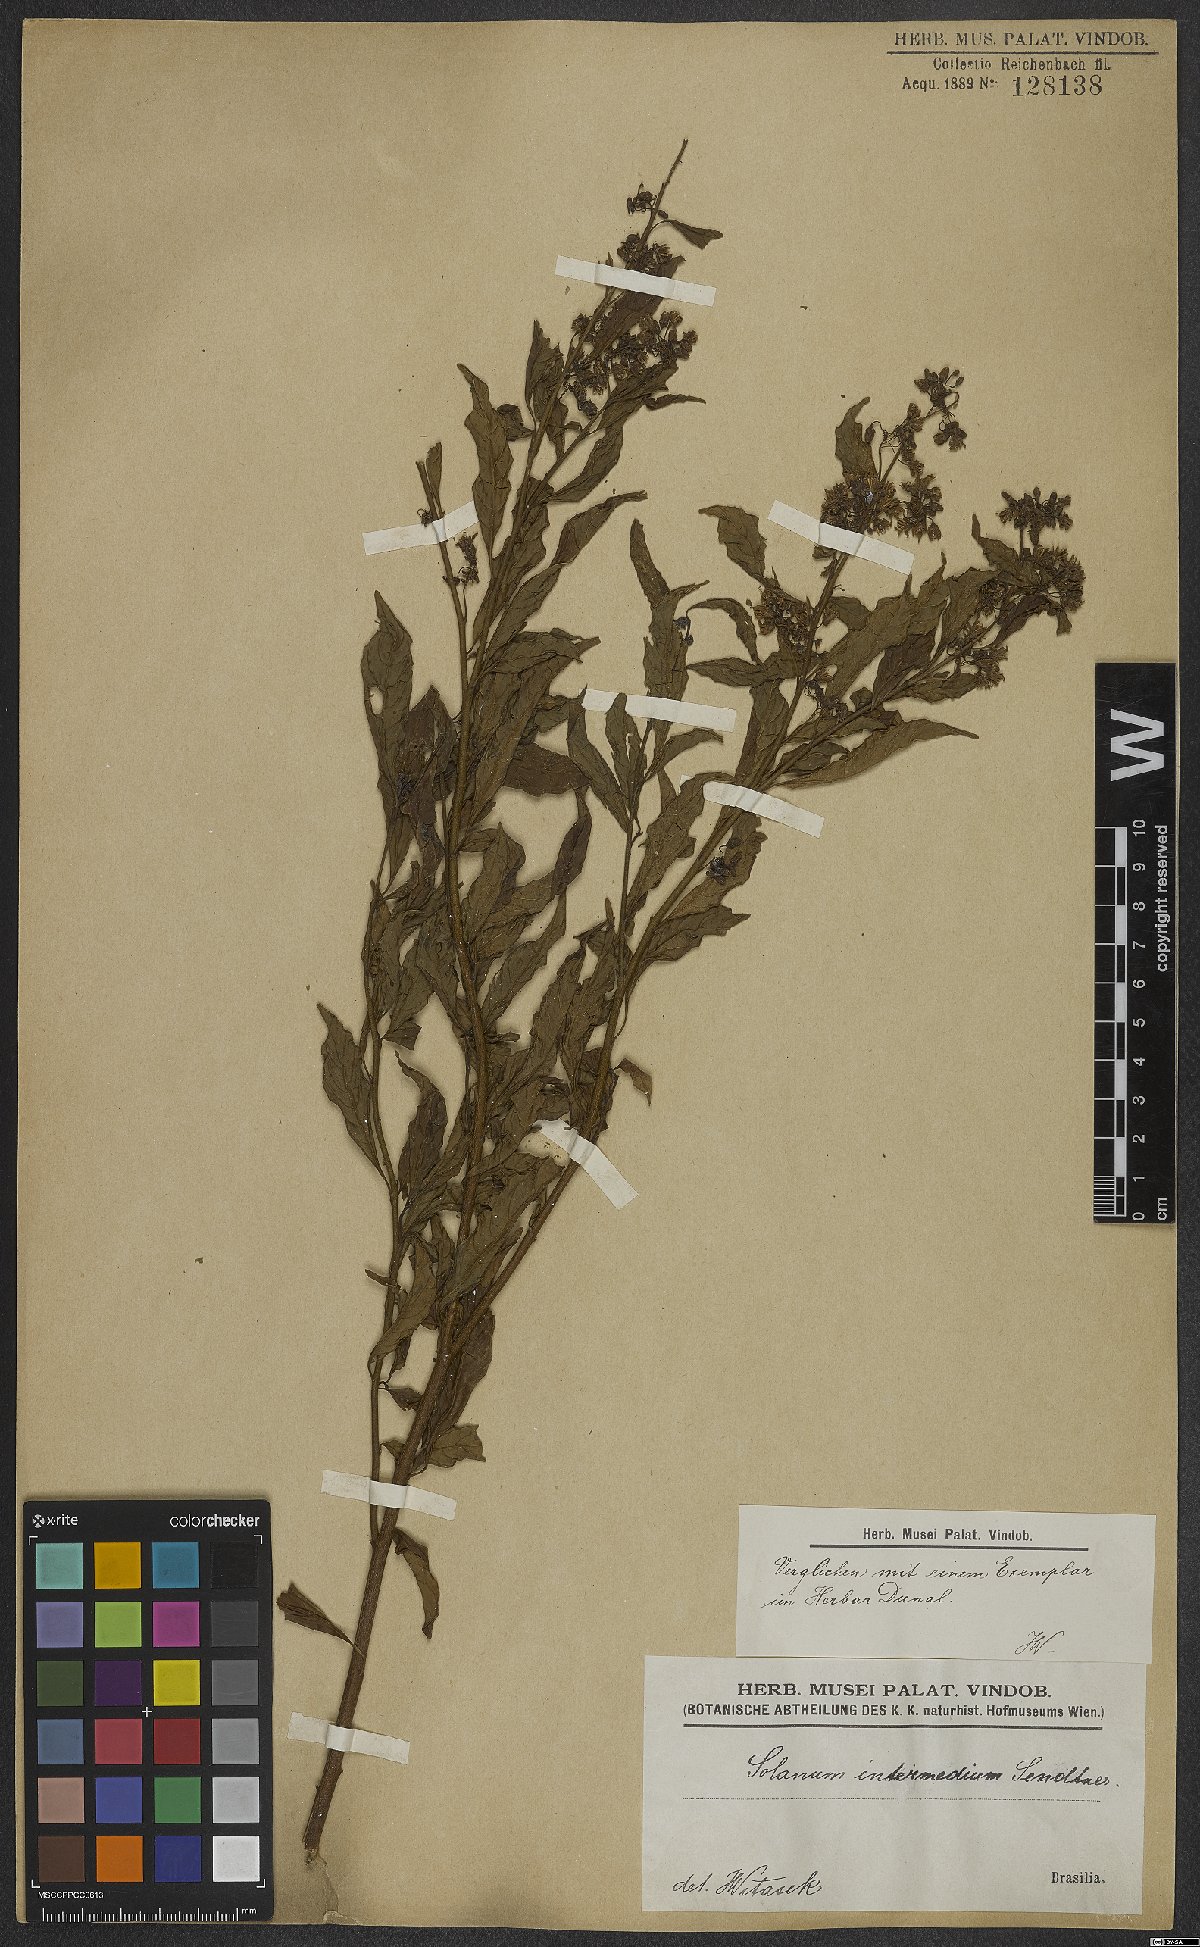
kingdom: Plantae
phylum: Tracheophyta
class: Magnoliopsida
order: Solanales
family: Solanaceae
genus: Solanum
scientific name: Solanum intermedium
